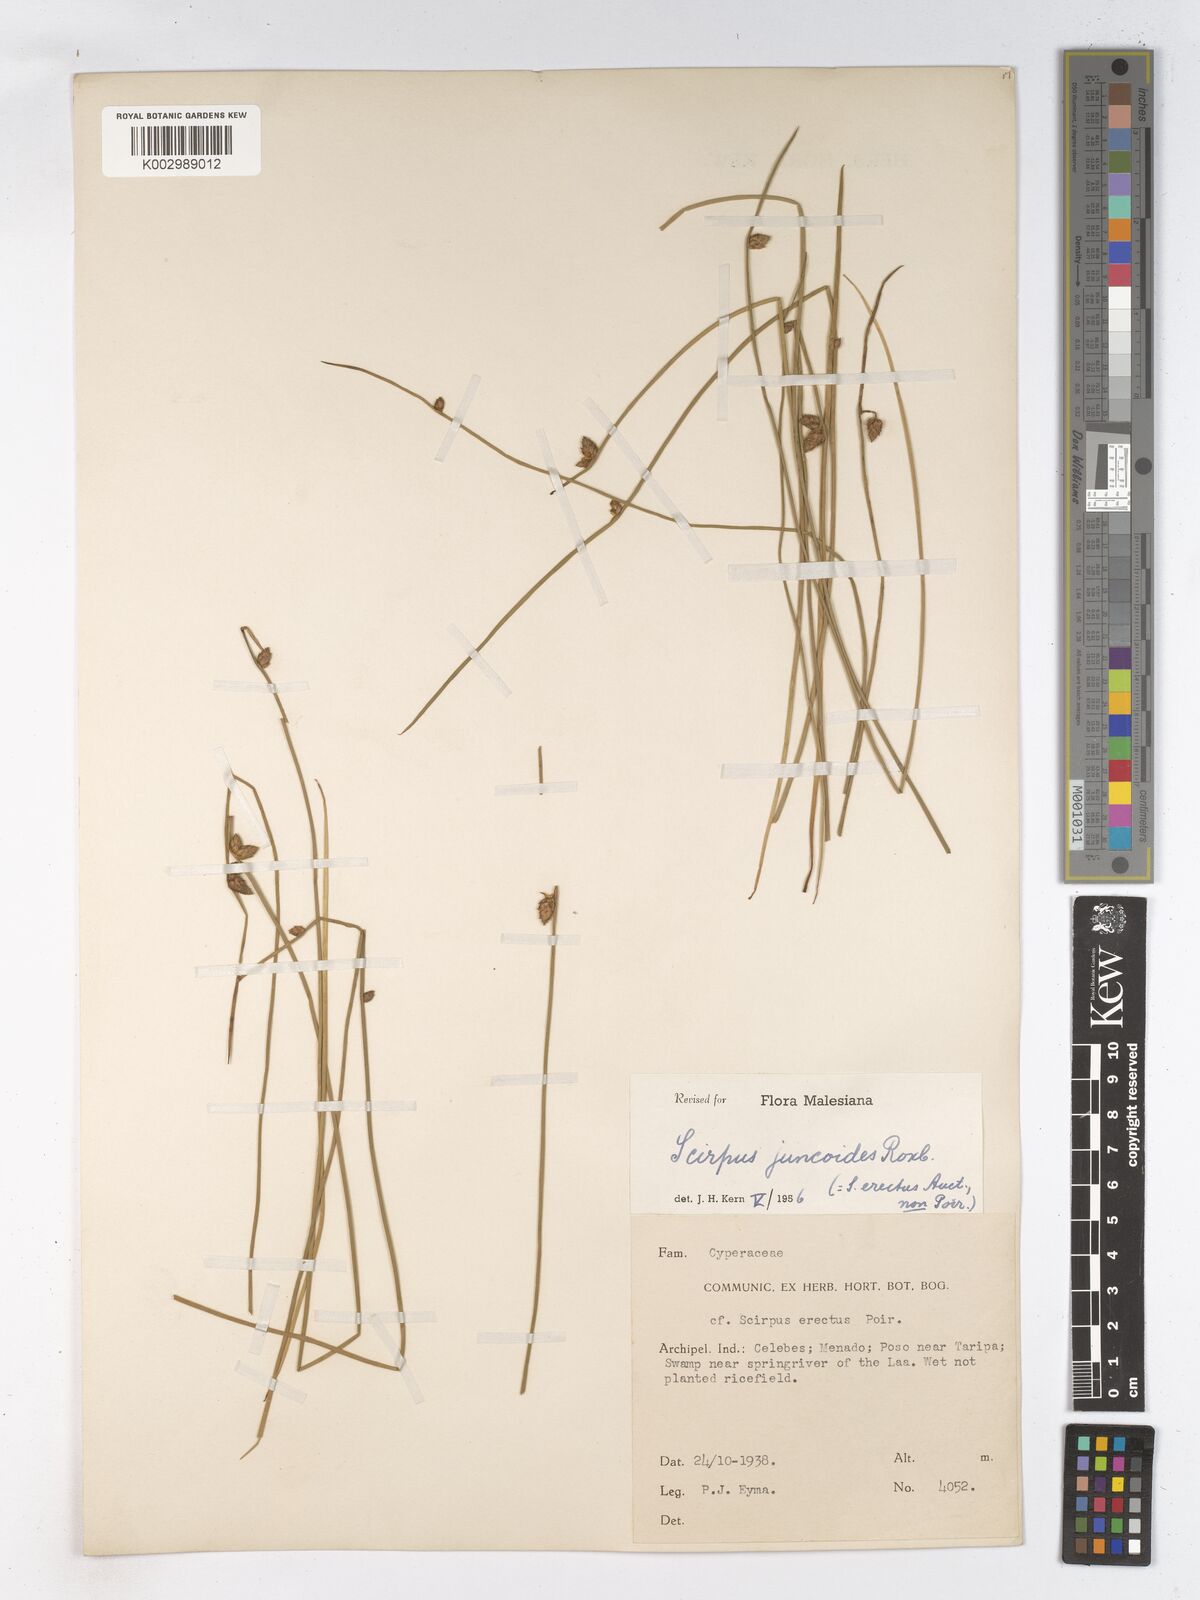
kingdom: Plantae
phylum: Tracheophyta
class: Liliopsida
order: Poales
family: Cyperaceae
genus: Schoenoplectiella
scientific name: Schoenoplectiella juncoides
